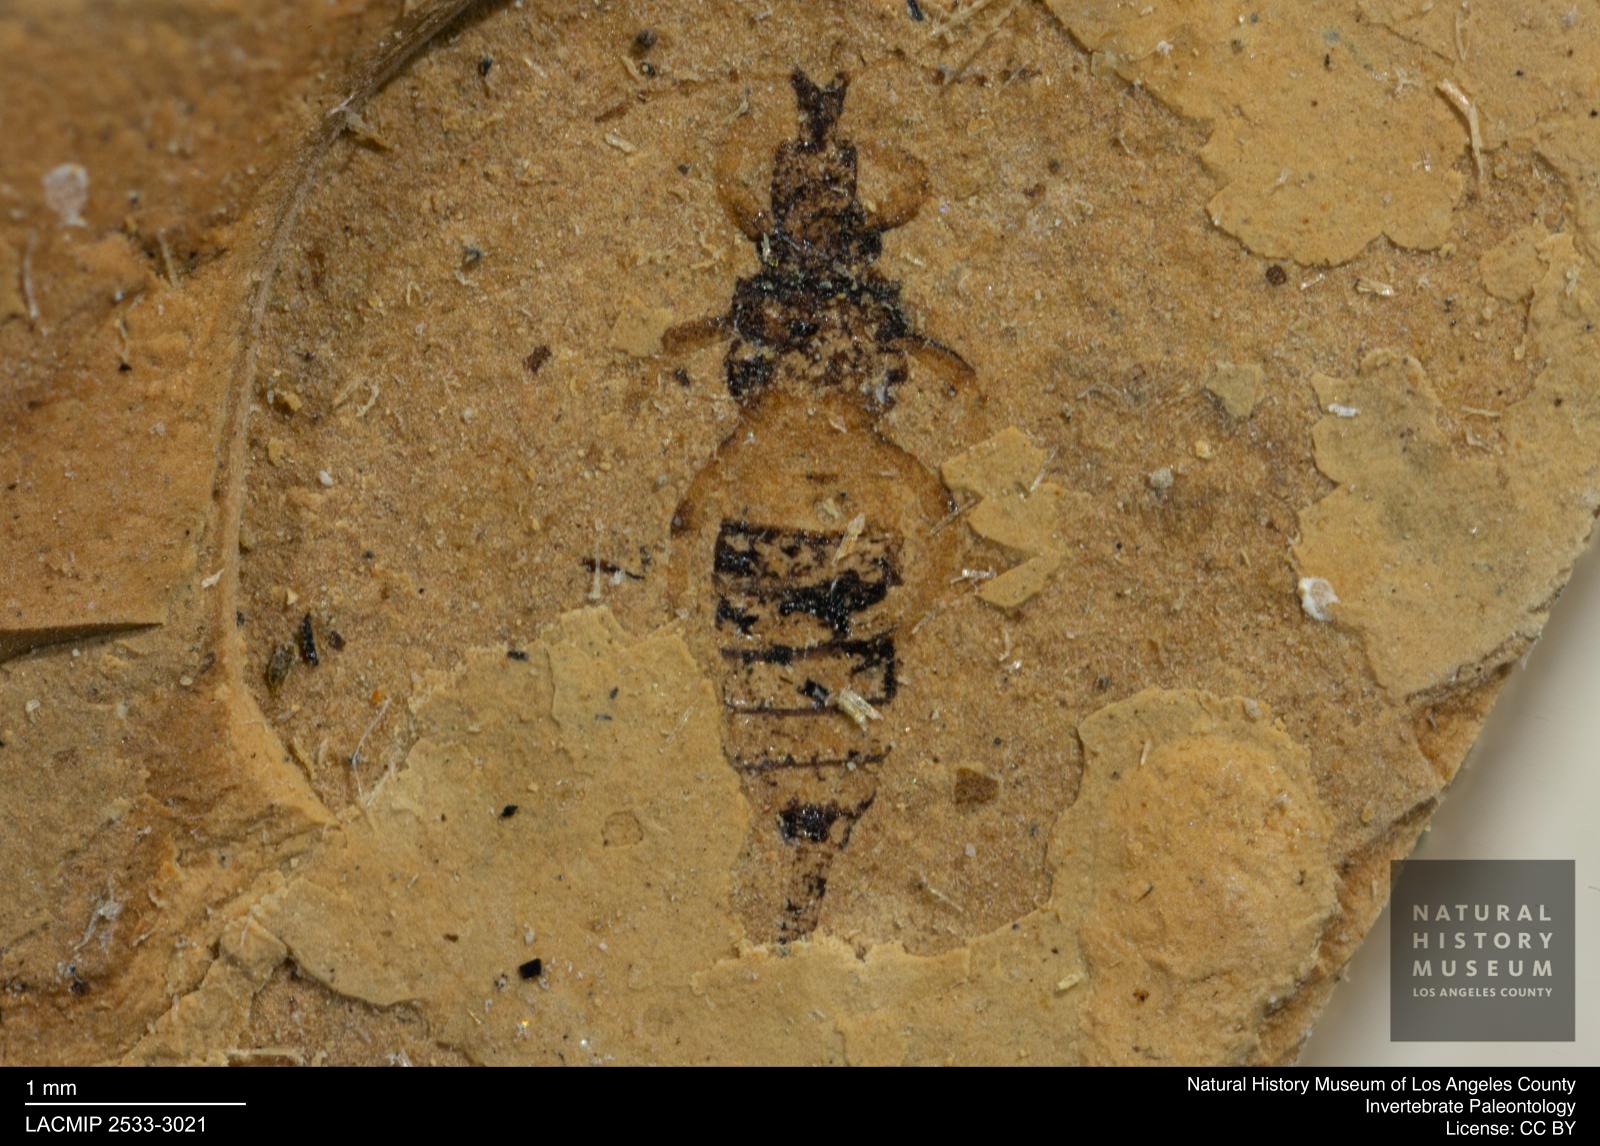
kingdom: Animalia
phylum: Arthropoda
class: Insecta
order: Thysanoptera
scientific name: Thysanoptera
